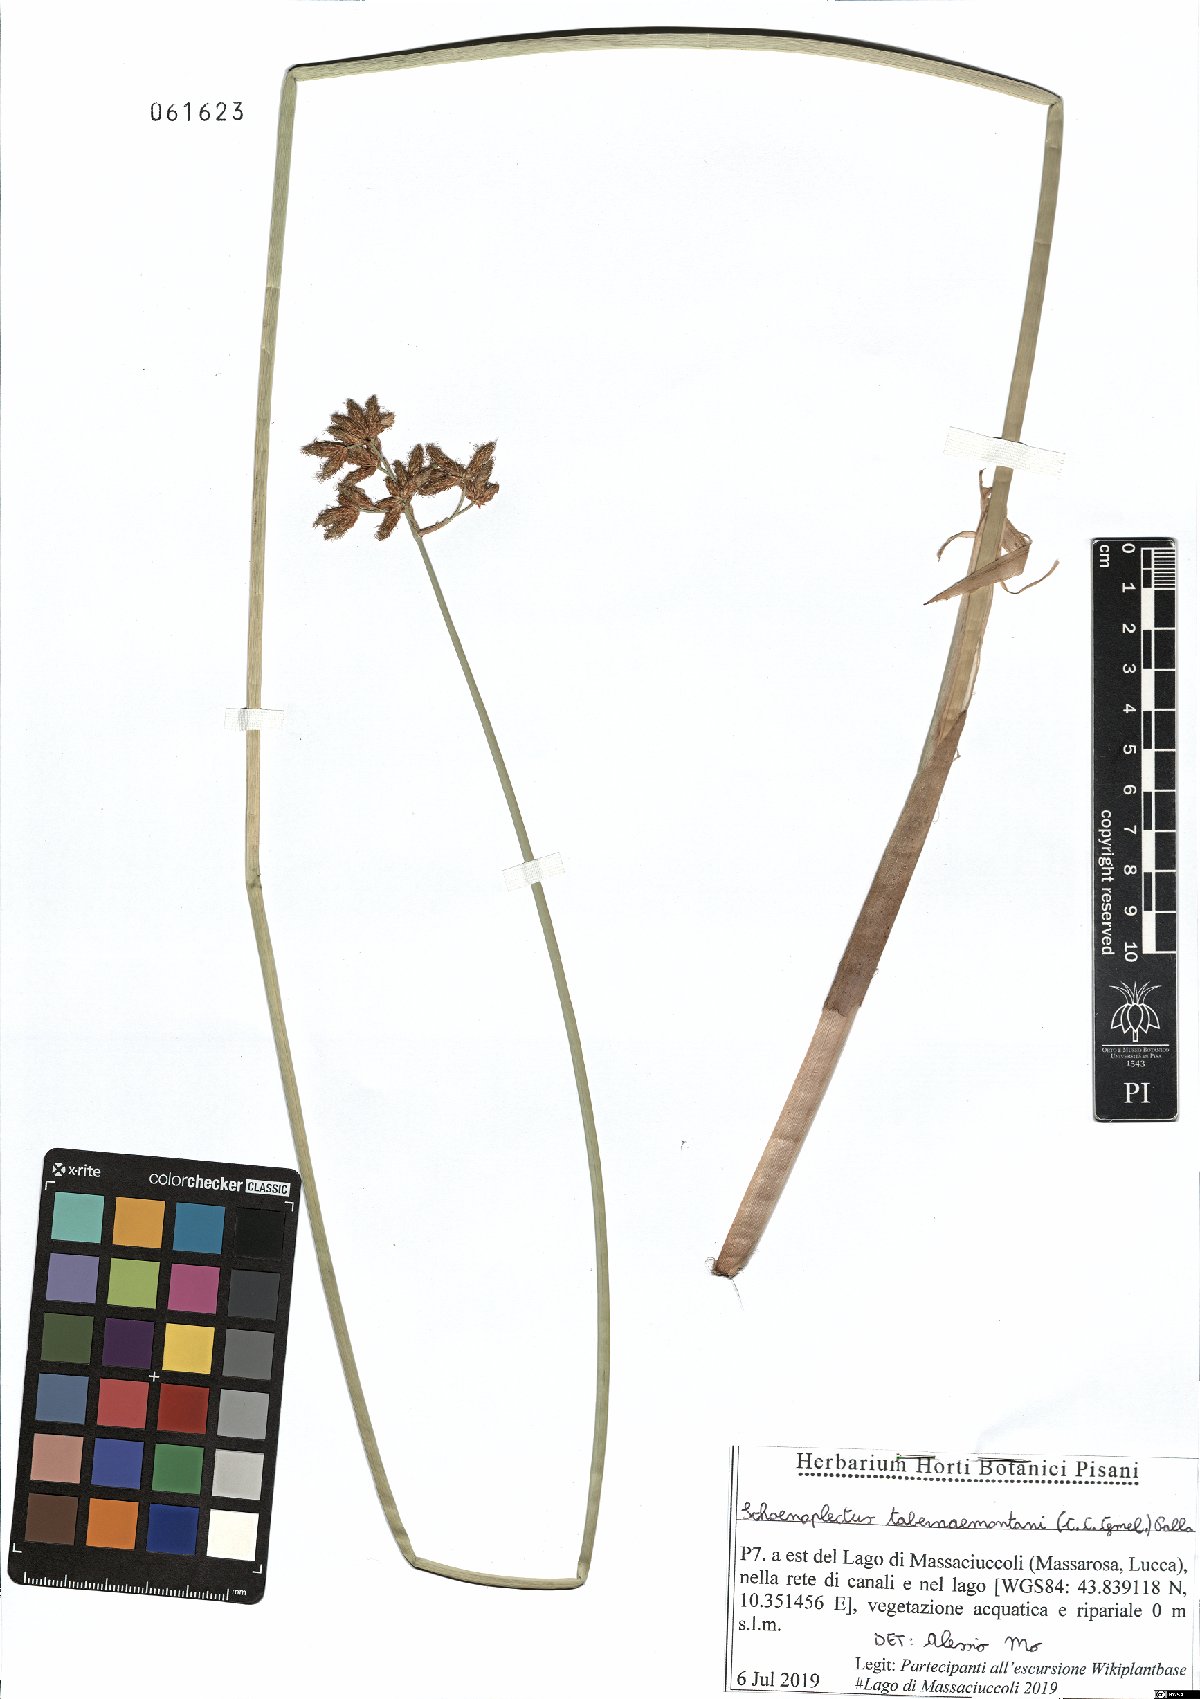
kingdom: Plantae
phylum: Tracheophyta
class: Liliopsida
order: Poales
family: Cyperaceae
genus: Schoenoplectus
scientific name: Schoenoplectus tabernaemontani
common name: Grey club-rush
